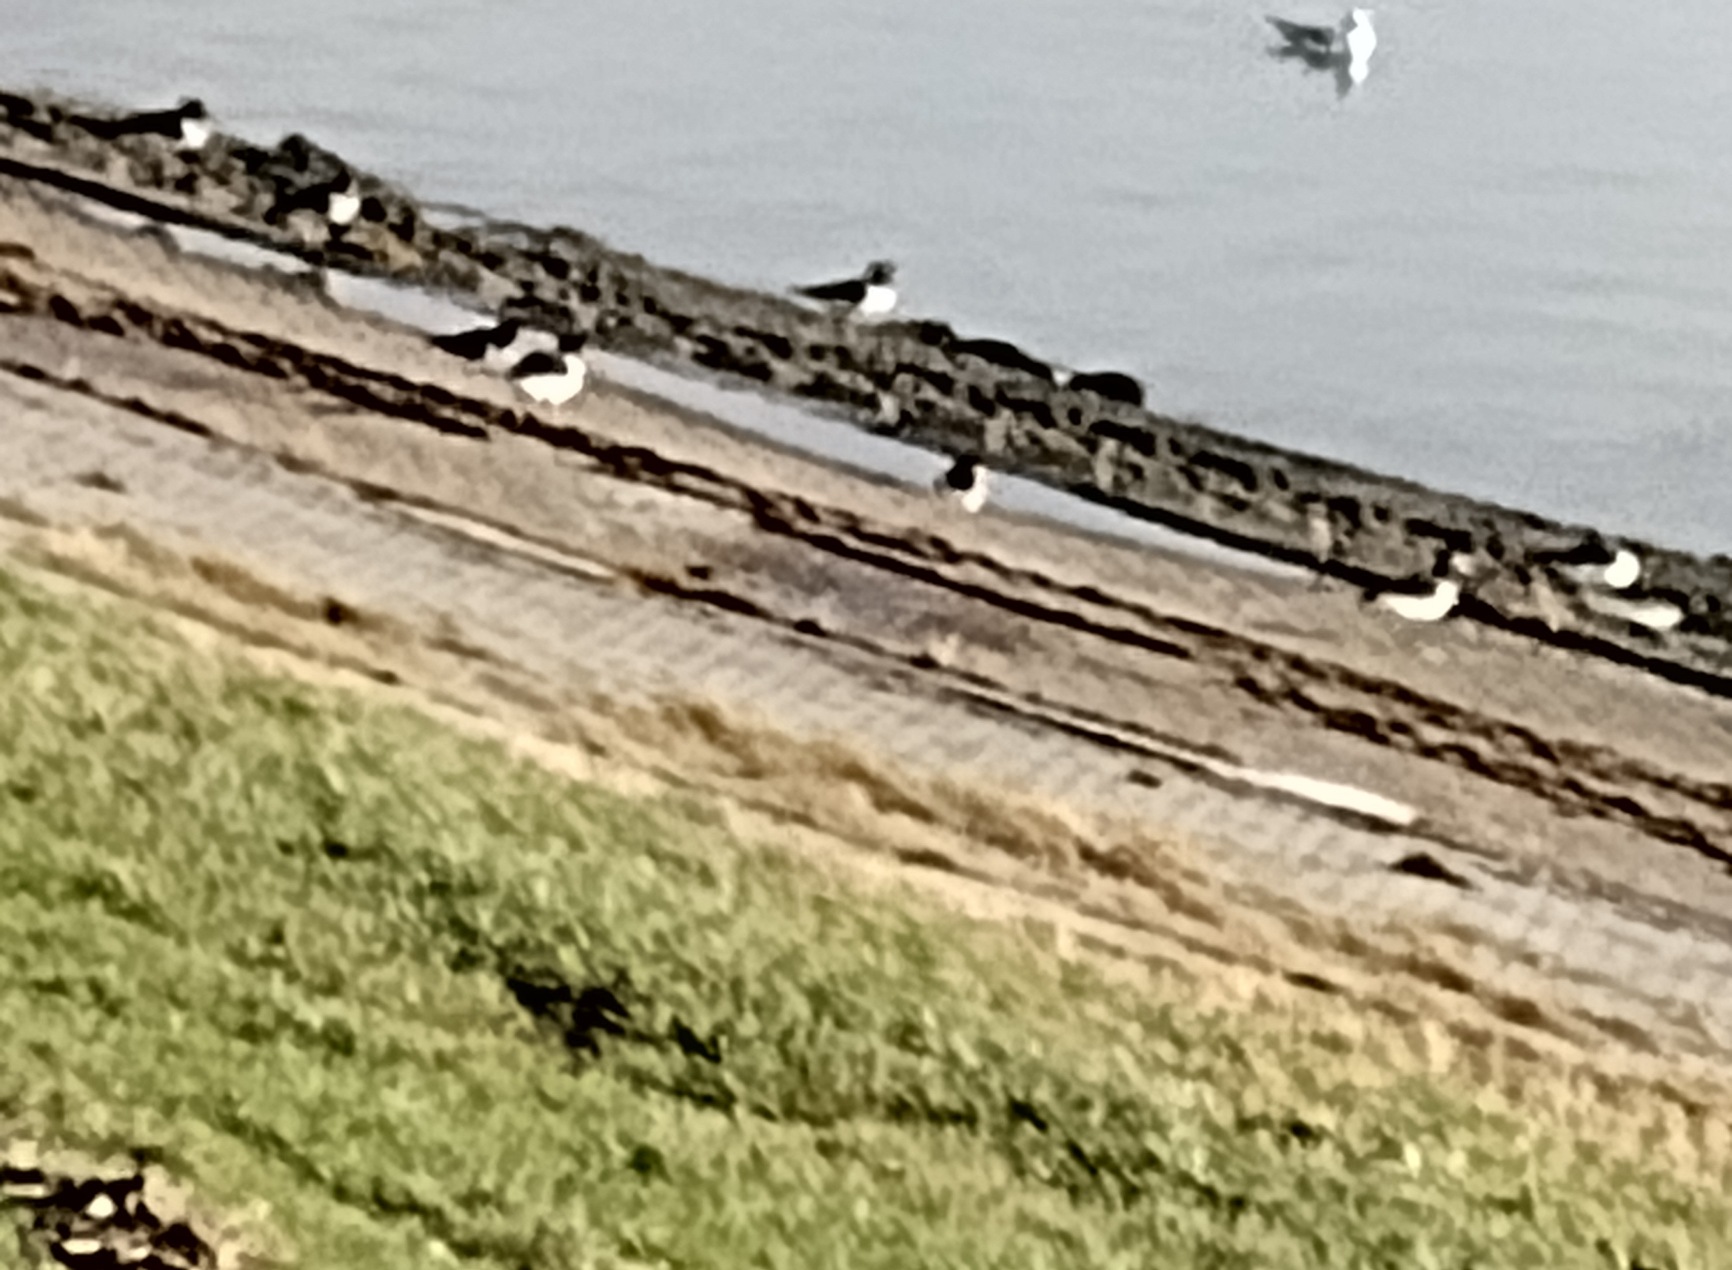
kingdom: Animalia
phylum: Chordata
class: Aves
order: Charadriiformes
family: Haematopodidae
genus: Haematopus
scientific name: Haematopus ostralegus
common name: Strandskade
